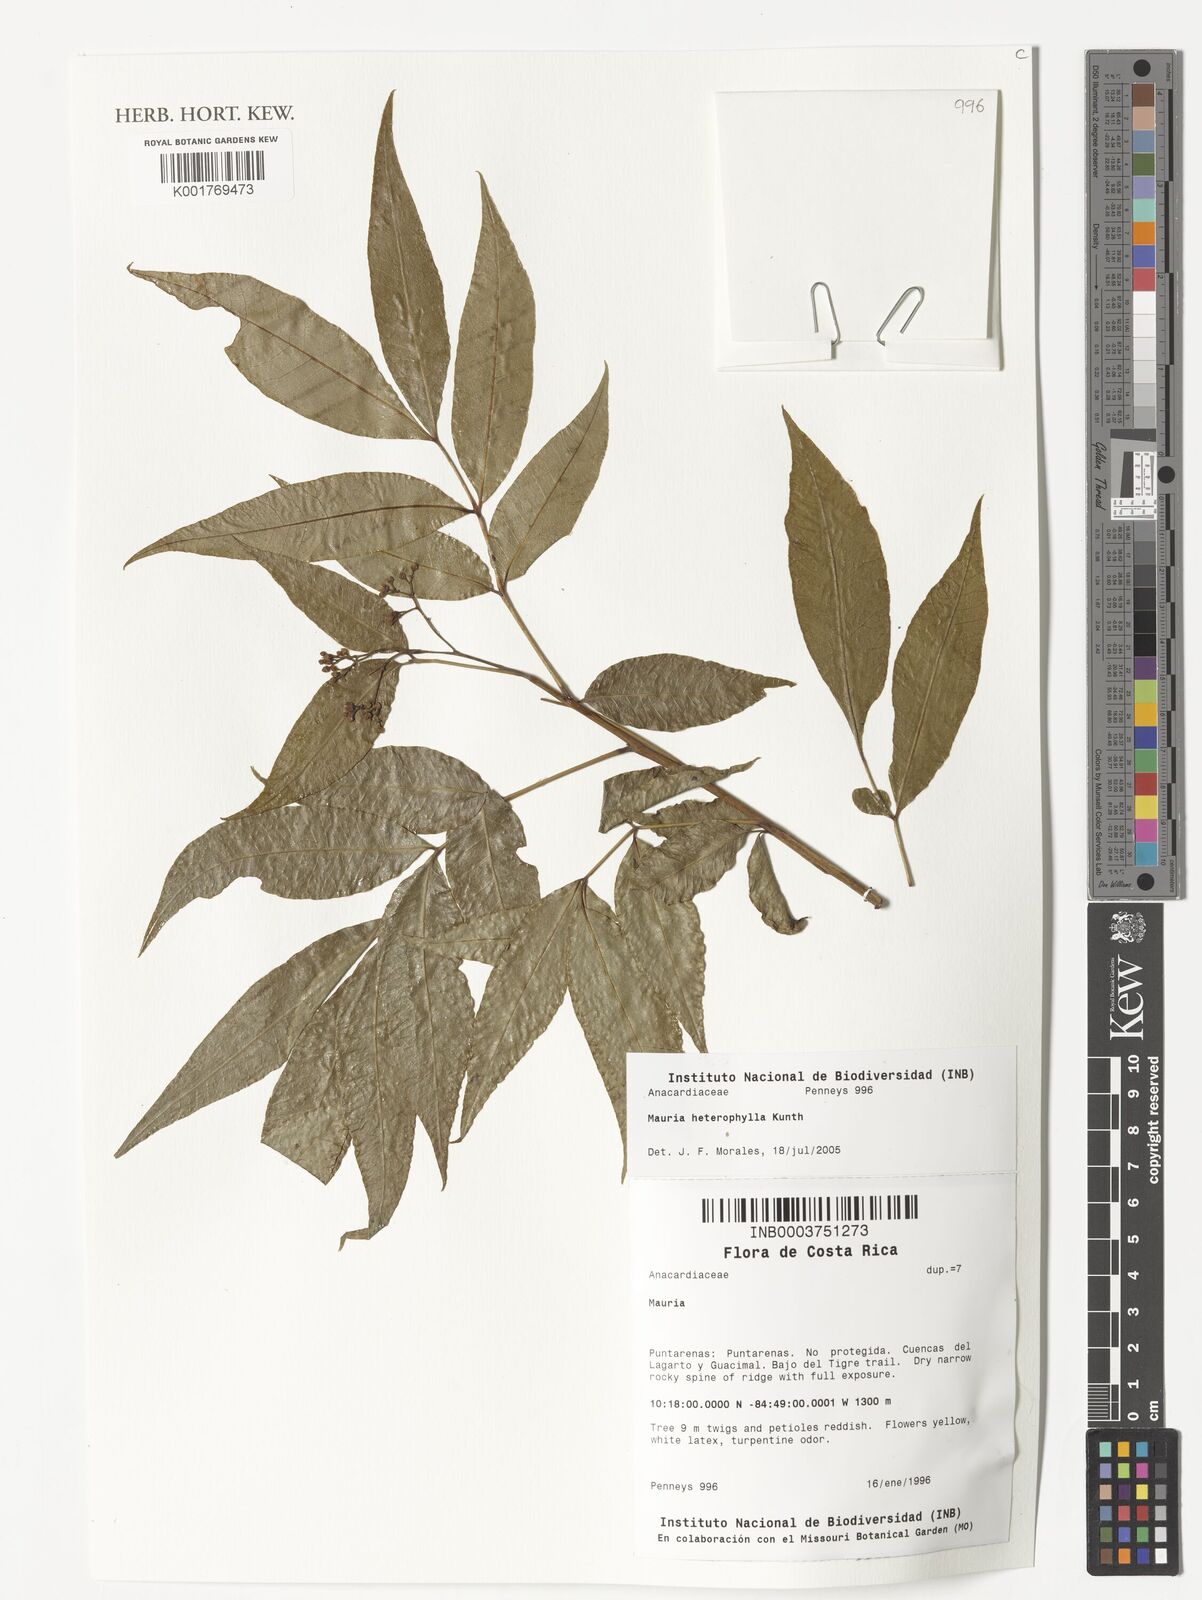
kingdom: Plantae
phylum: Tracheophyta
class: Magnoliopsida
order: Sapindales
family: Anacardiaceae
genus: Mauria
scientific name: Mauria heterophylla
